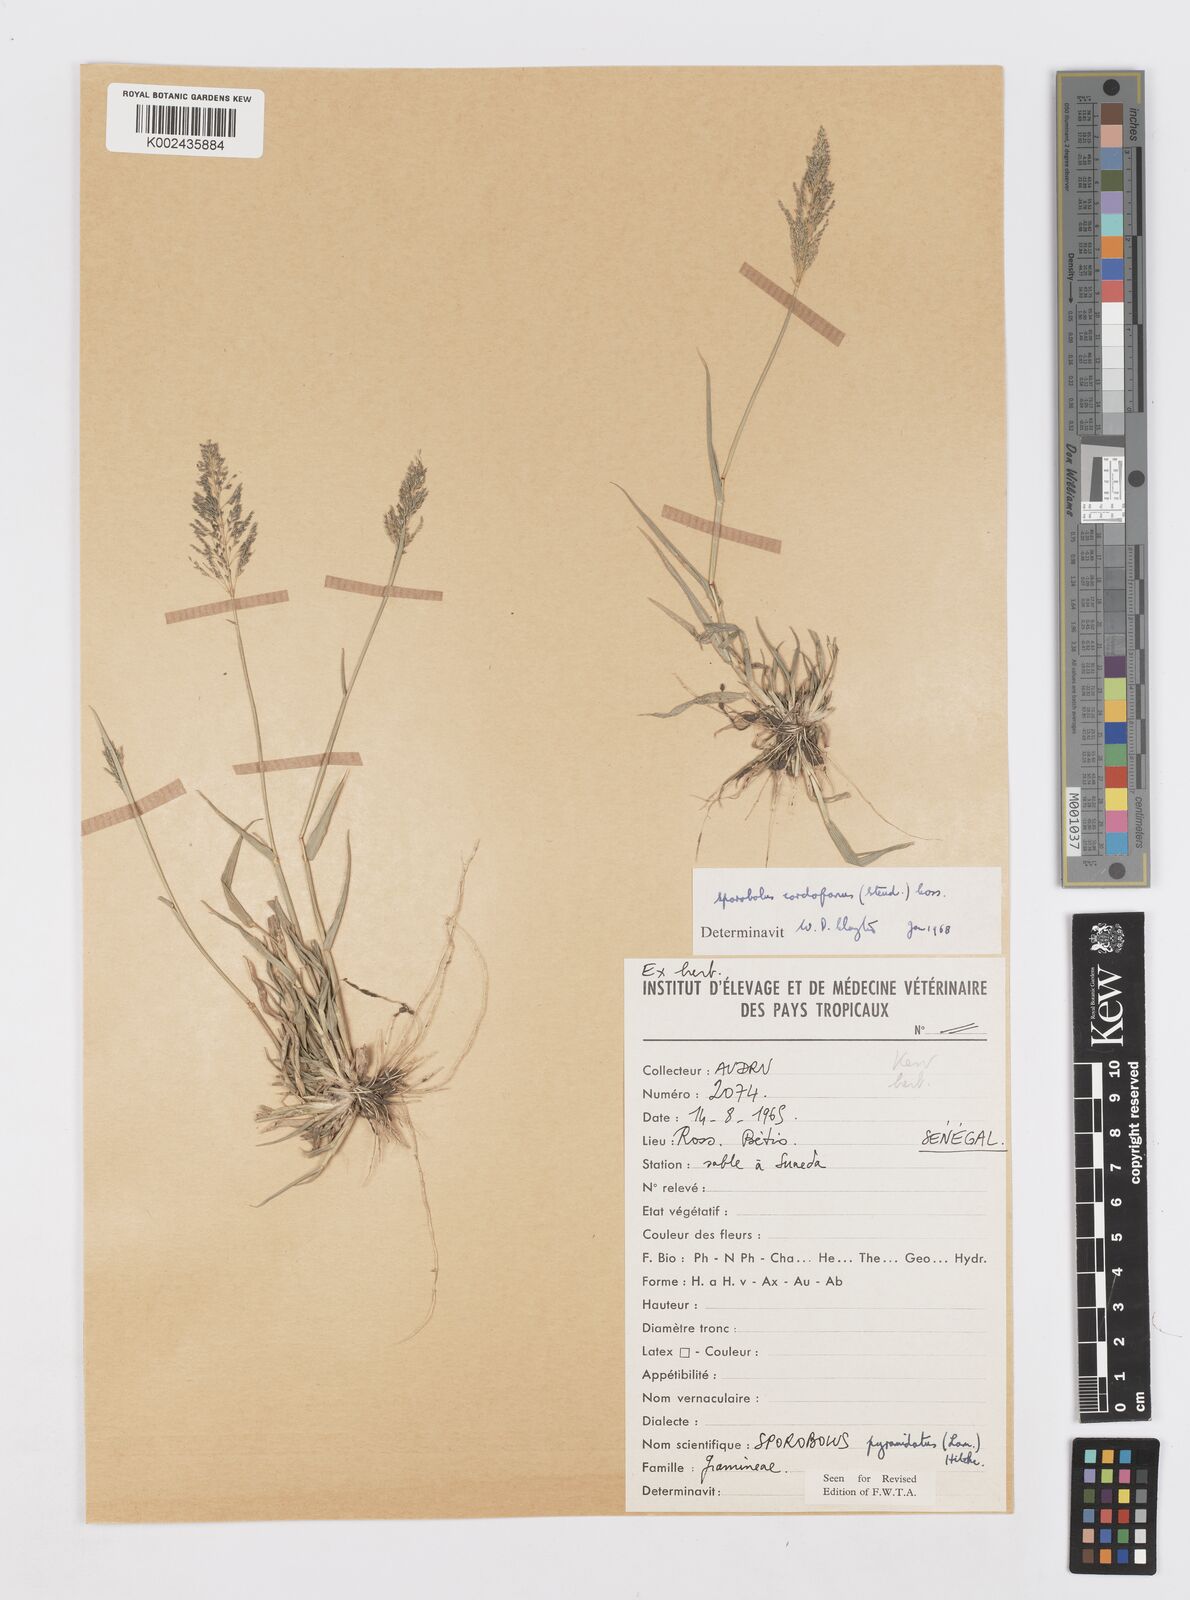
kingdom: Plantae
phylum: Tracheophyta
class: Liliopsida
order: Poales
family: Poaceae
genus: Sporobolus
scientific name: Sporobolus cordofanus
